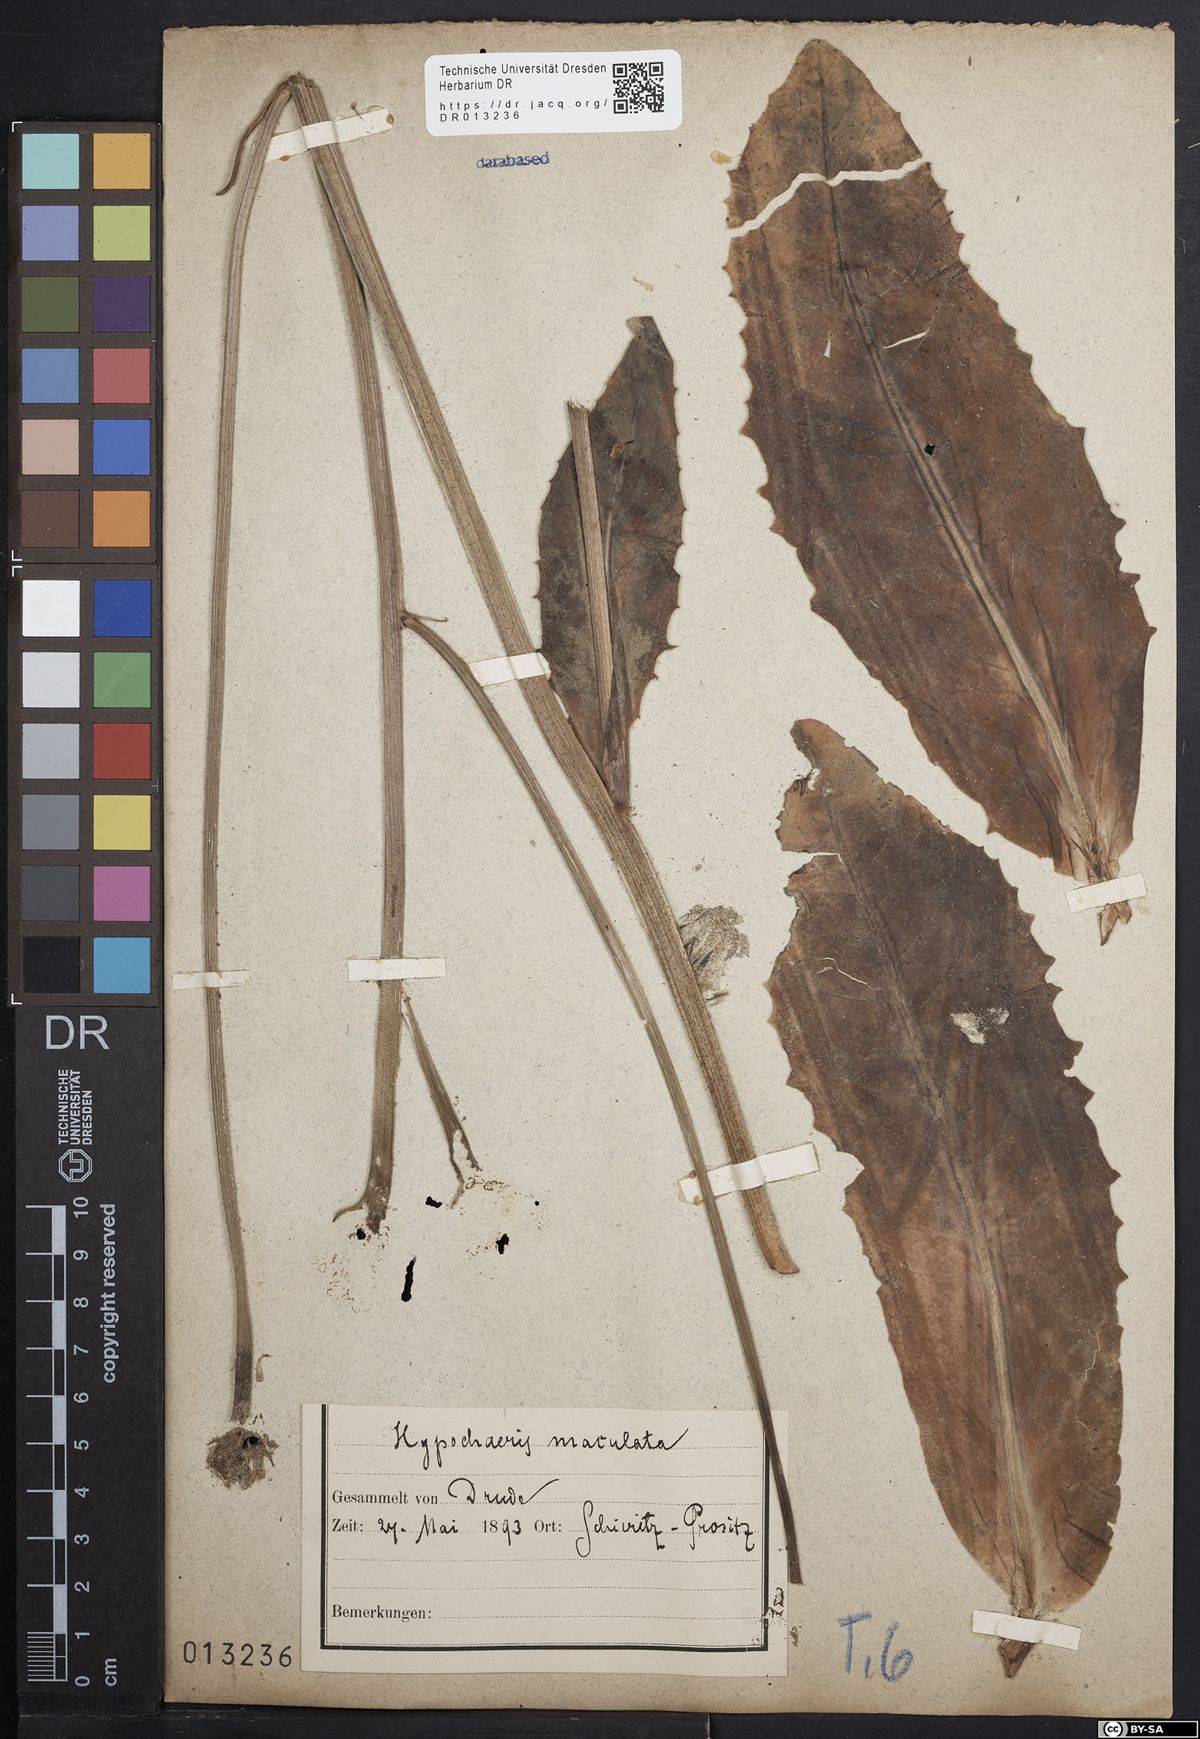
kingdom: Plantae
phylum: Tracheophyta
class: Magnoliopsida
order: Asterales
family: Asteraceae
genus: Trommsdorffia
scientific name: Trommsdorffia maculata
